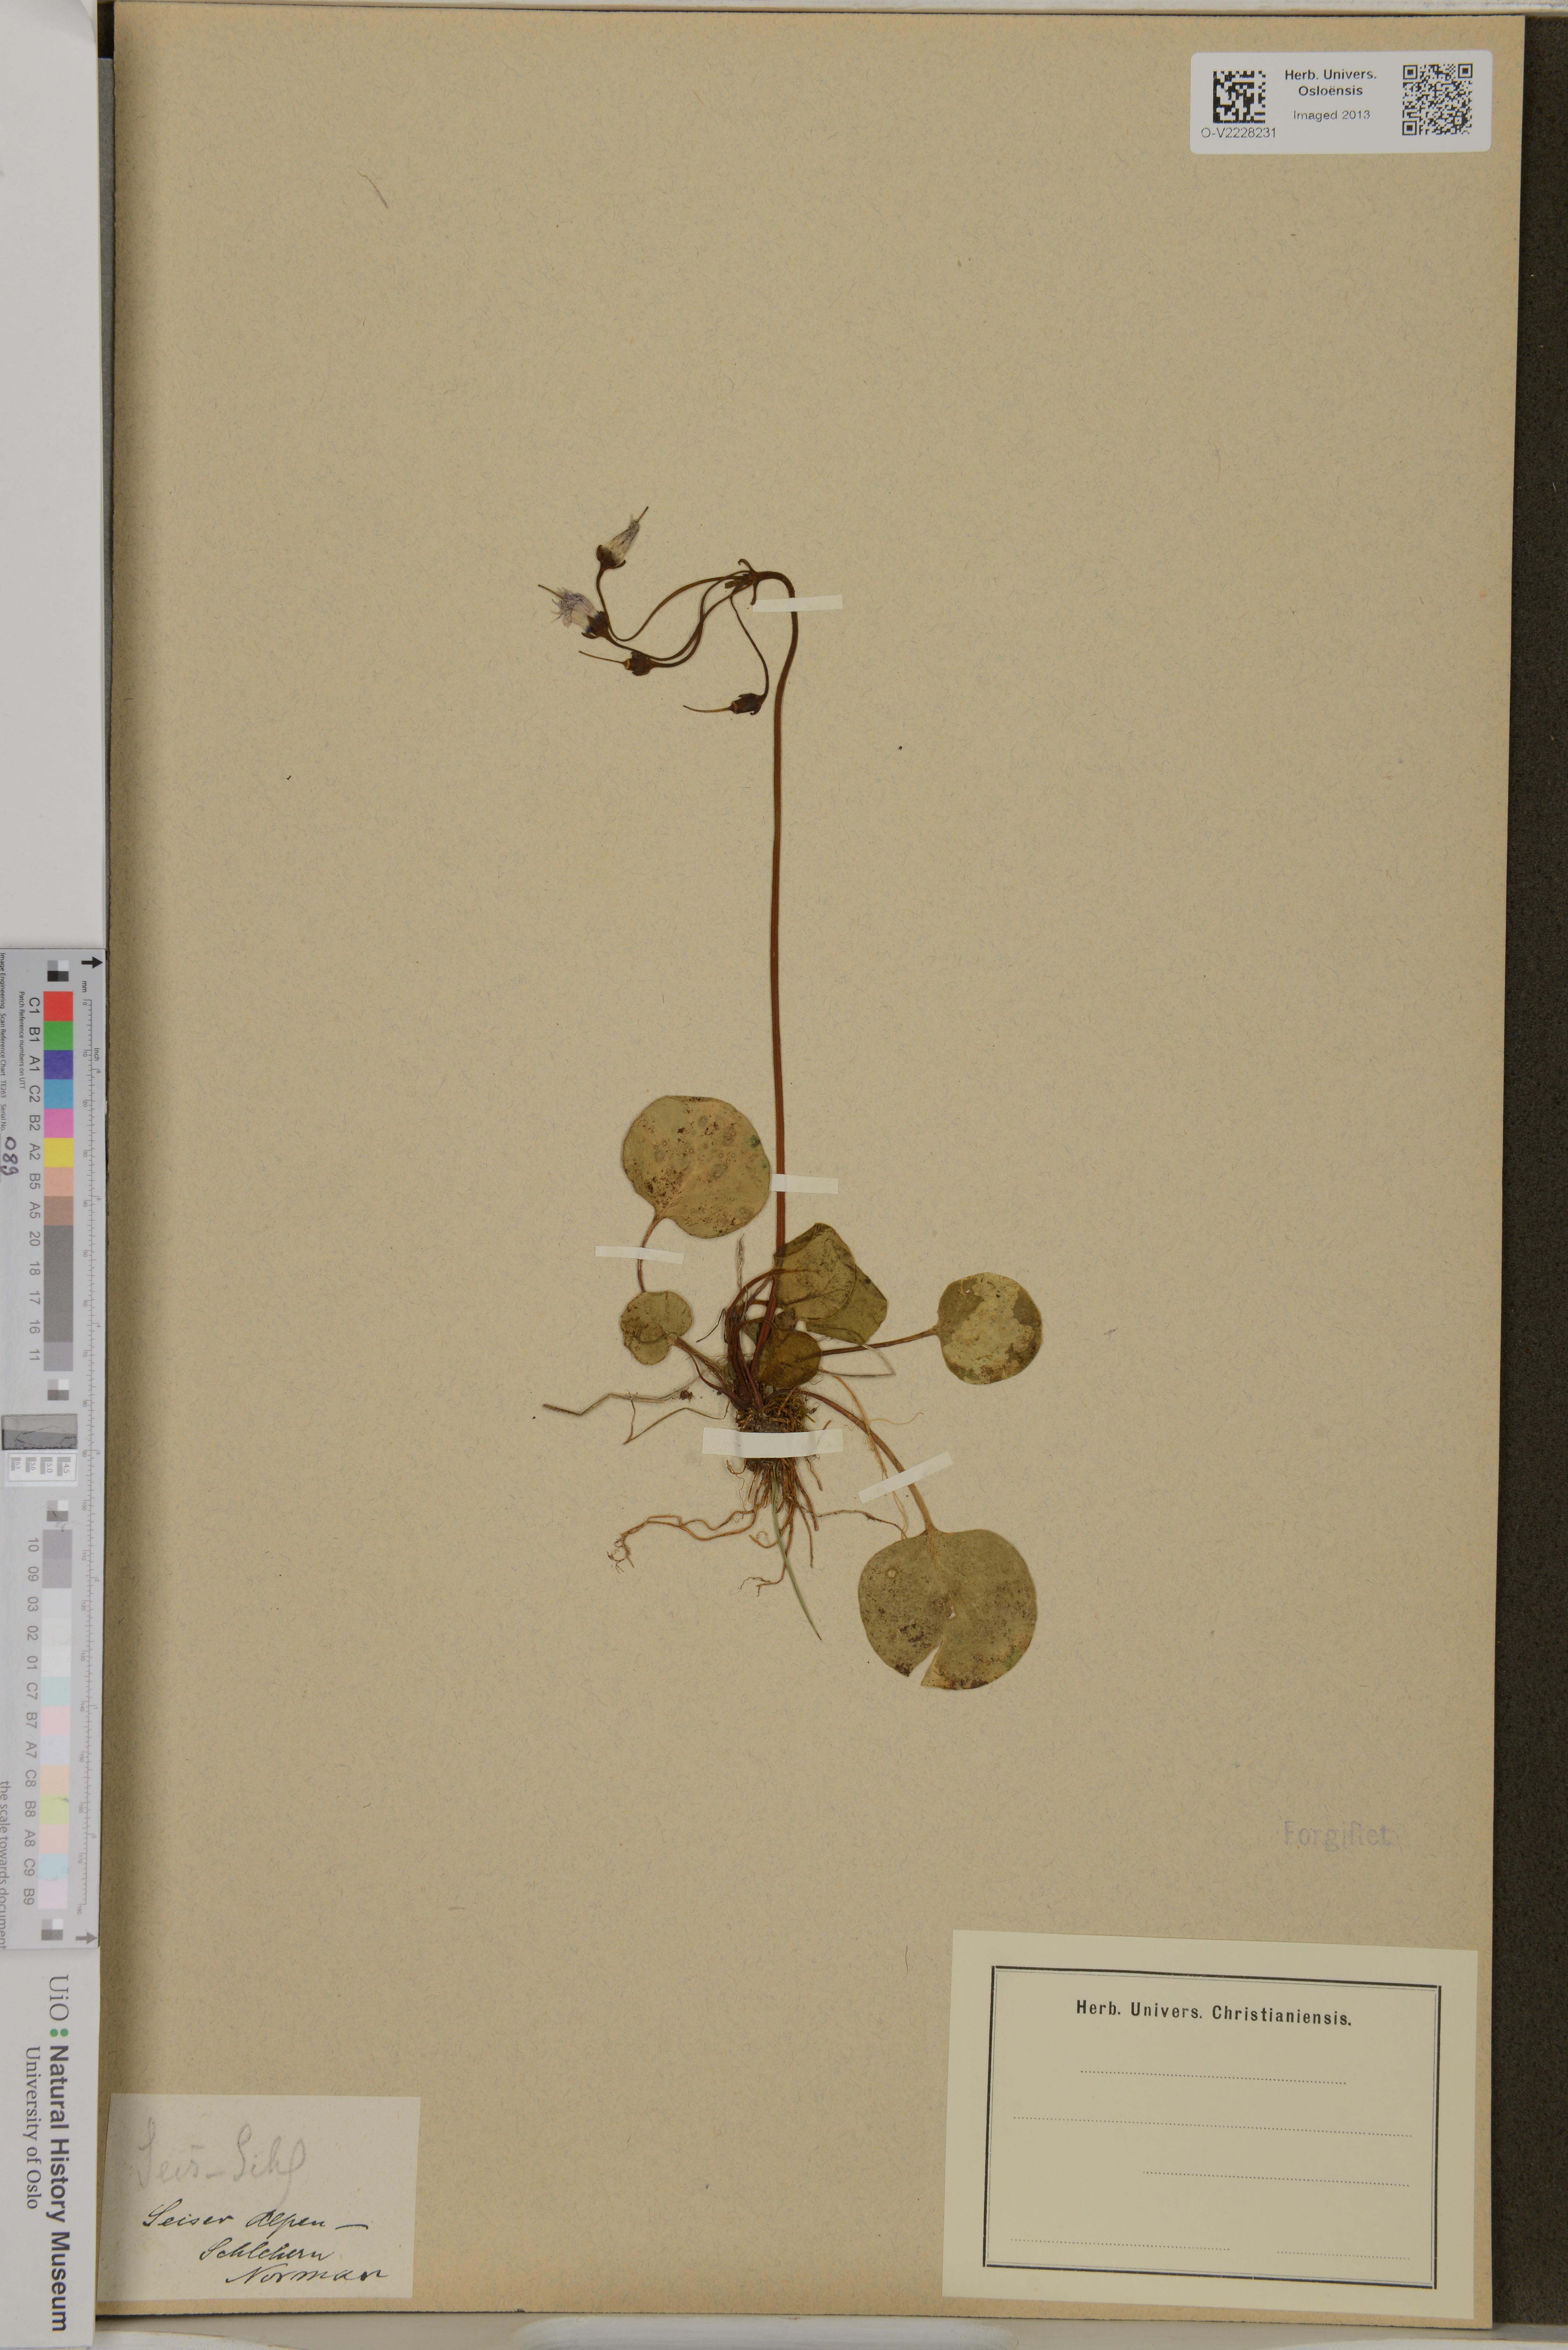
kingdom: Plantae
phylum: Tracheophyta
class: Magnoliopsida
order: Ericales
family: Primulaceae
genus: Soldanella
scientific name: Soldanella
